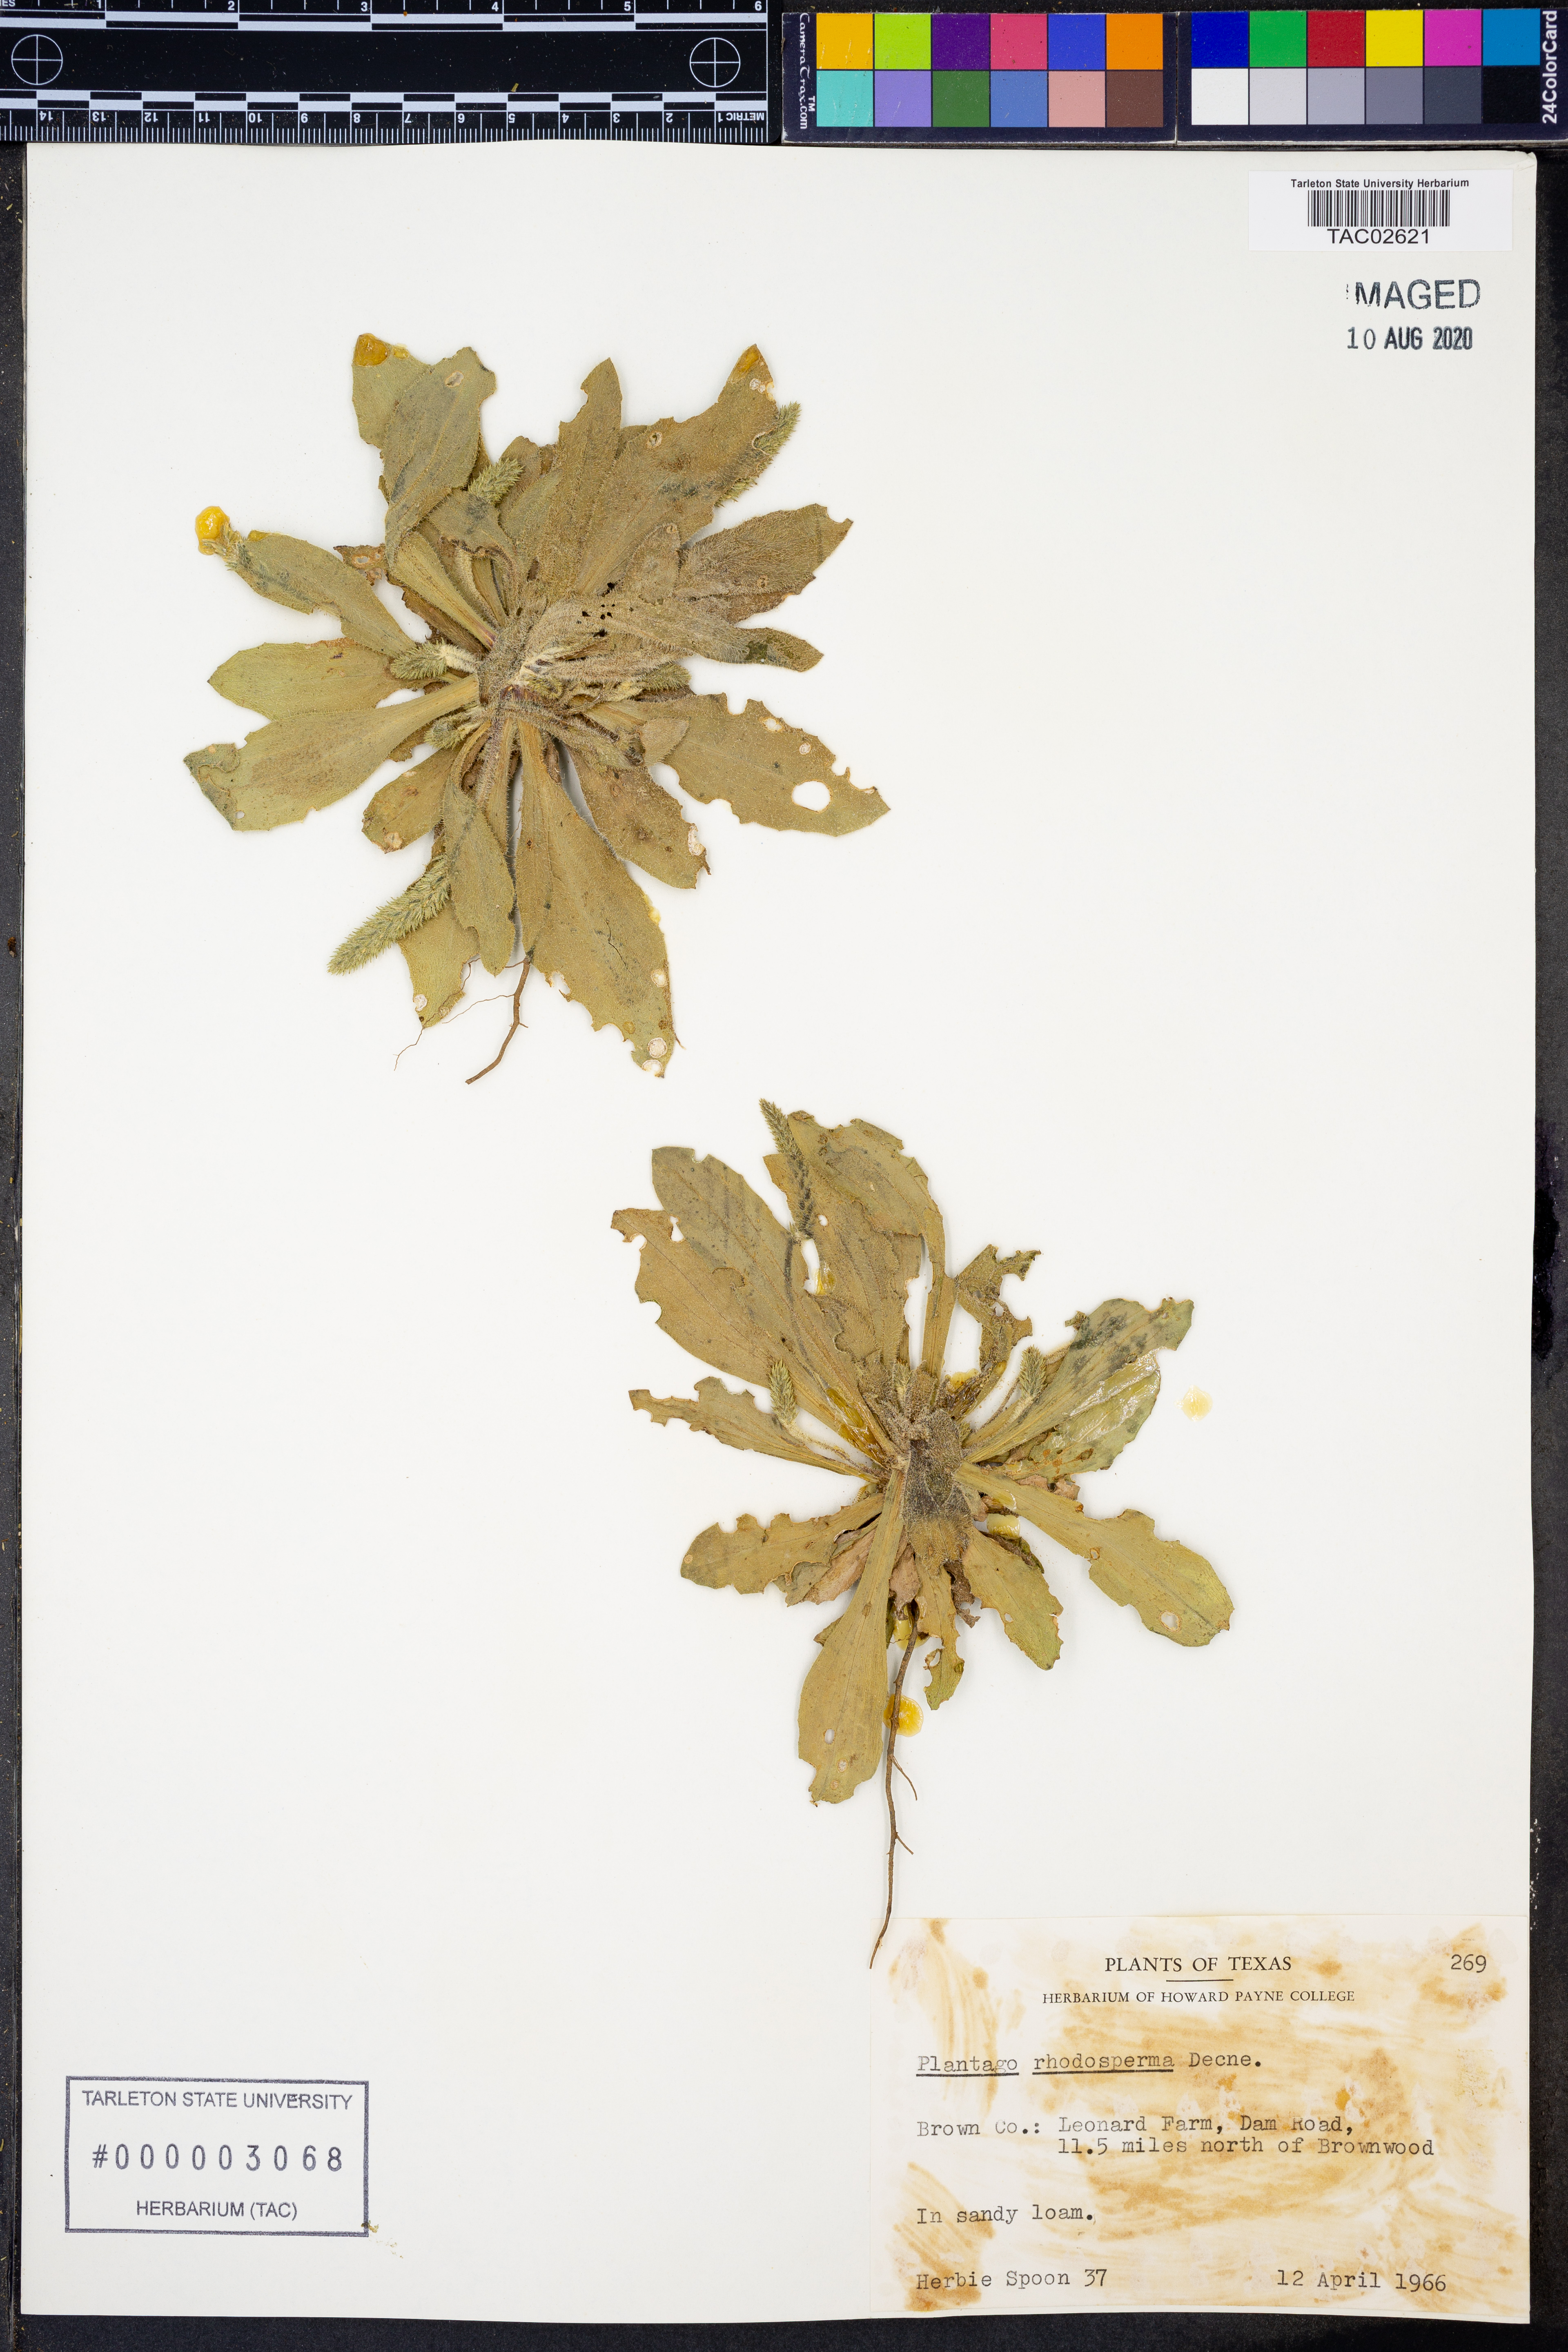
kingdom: Plantae
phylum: Tracheophyta
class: Magnoliopsida
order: Lamiales
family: Plantaginaceae
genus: Plantago
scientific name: Plantago rhodosperma
